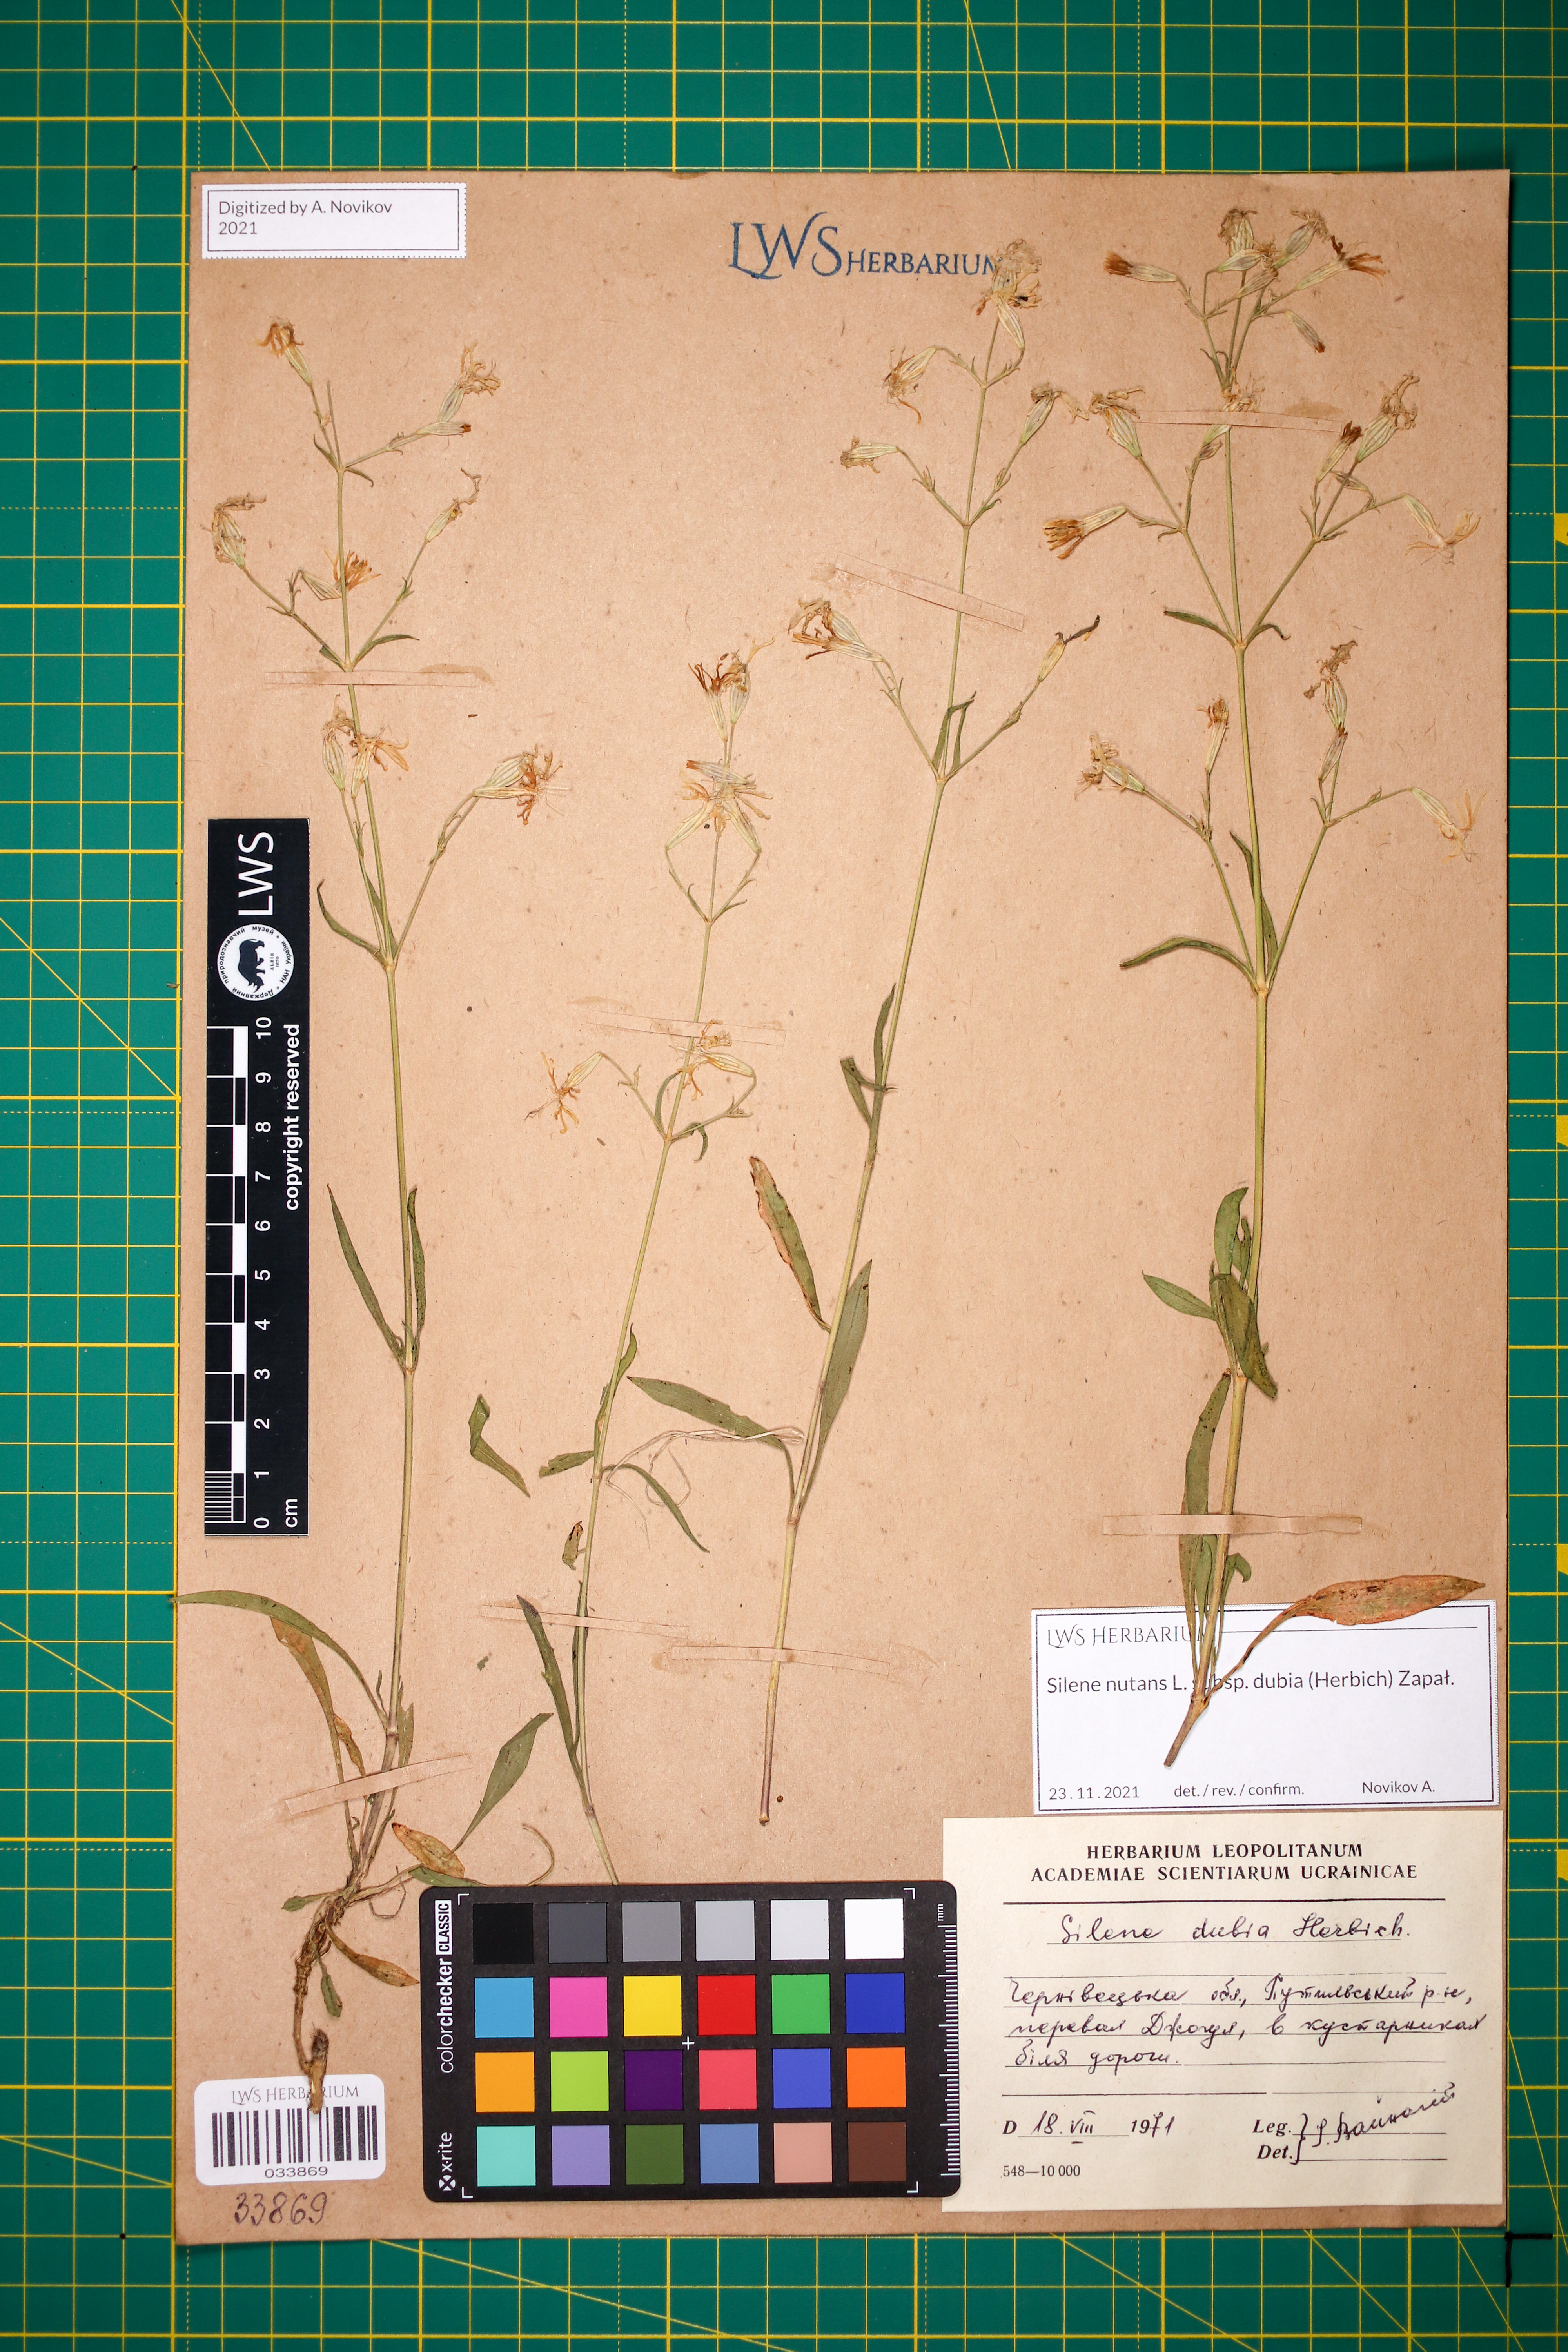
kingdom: Plantae
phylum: Tracheophyta
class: Magnoliopsida
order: Caryophyllales
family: Caryophyllaceae
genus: Silene
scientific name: Silene nutans
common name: Nottingham catchfly
